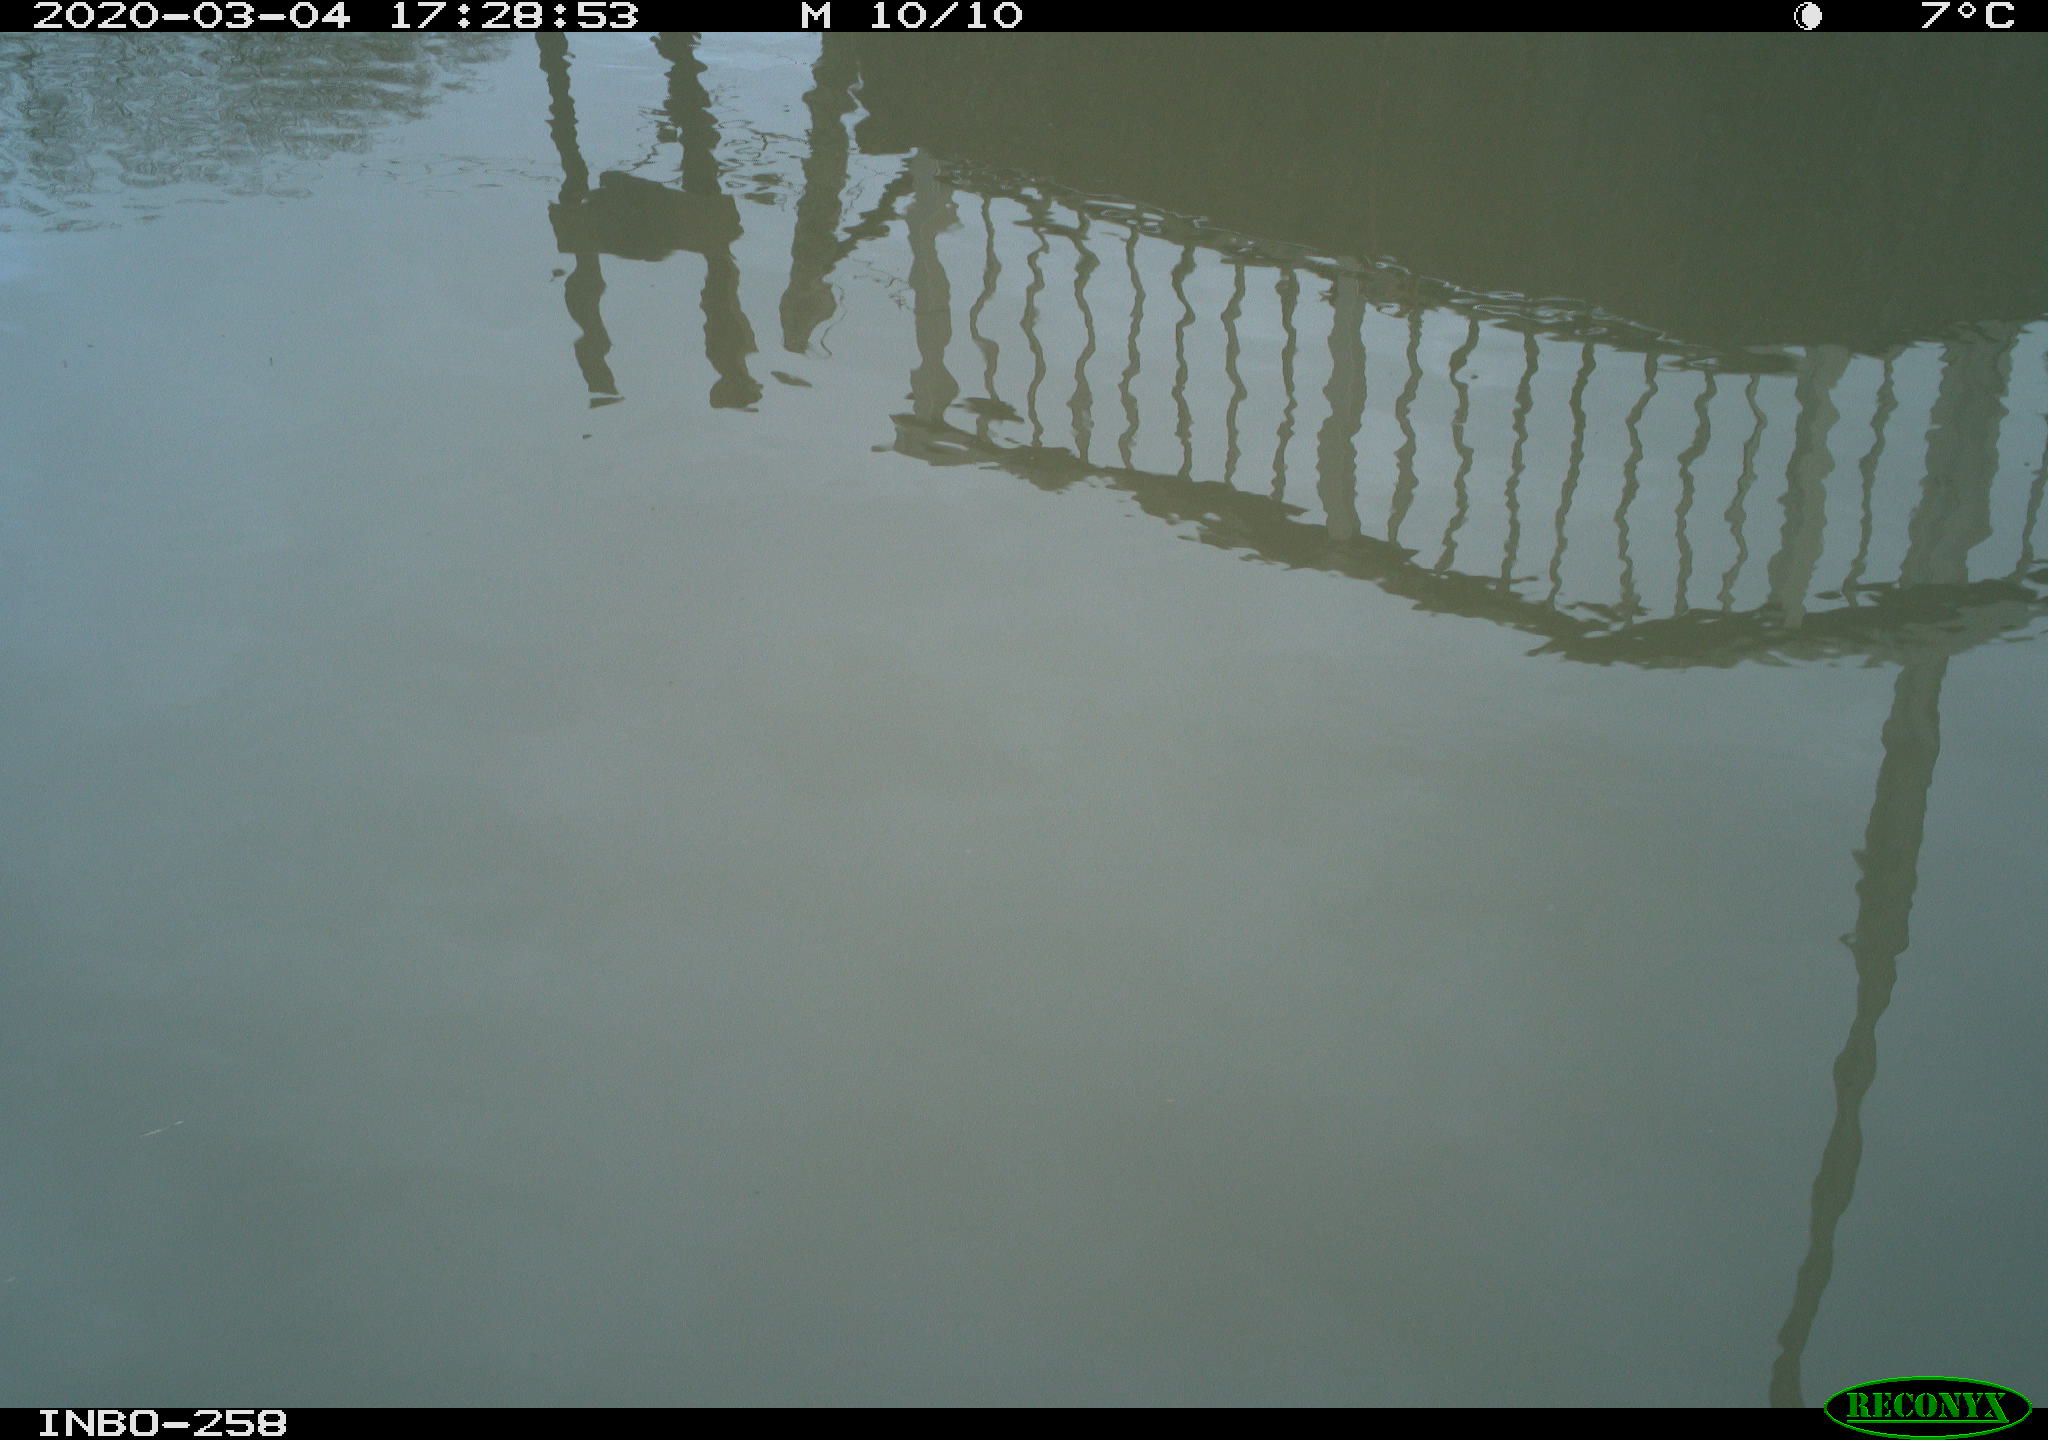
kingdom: Animalia
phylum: Chordata
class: Aves
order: Gruiformes
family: Rallidae
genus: Gallinula
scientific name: Gallinula chloropus
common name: Common moorhen
